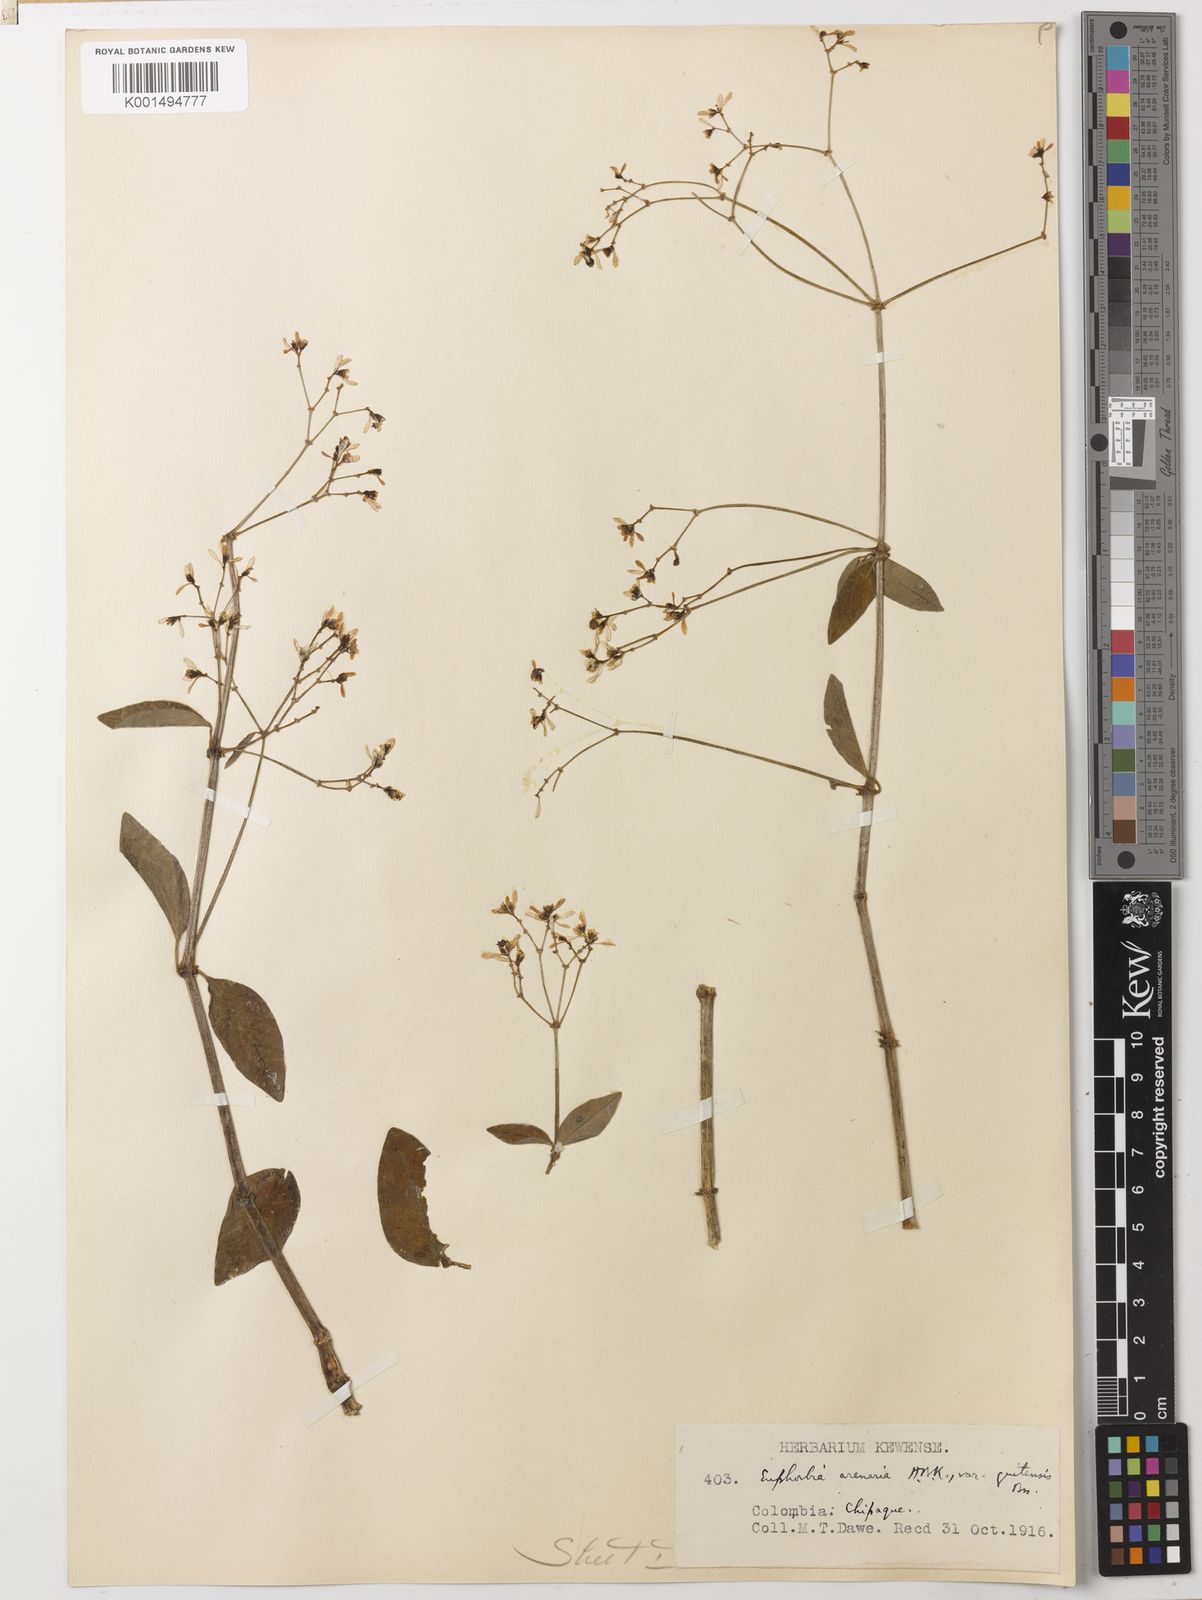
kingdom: Plantae
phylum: Tracheophyta
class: Magnoliopsida
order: Malpighiales
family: Euphorbiaceae
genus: Euphorbia
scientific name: Euphorbia arenaria
